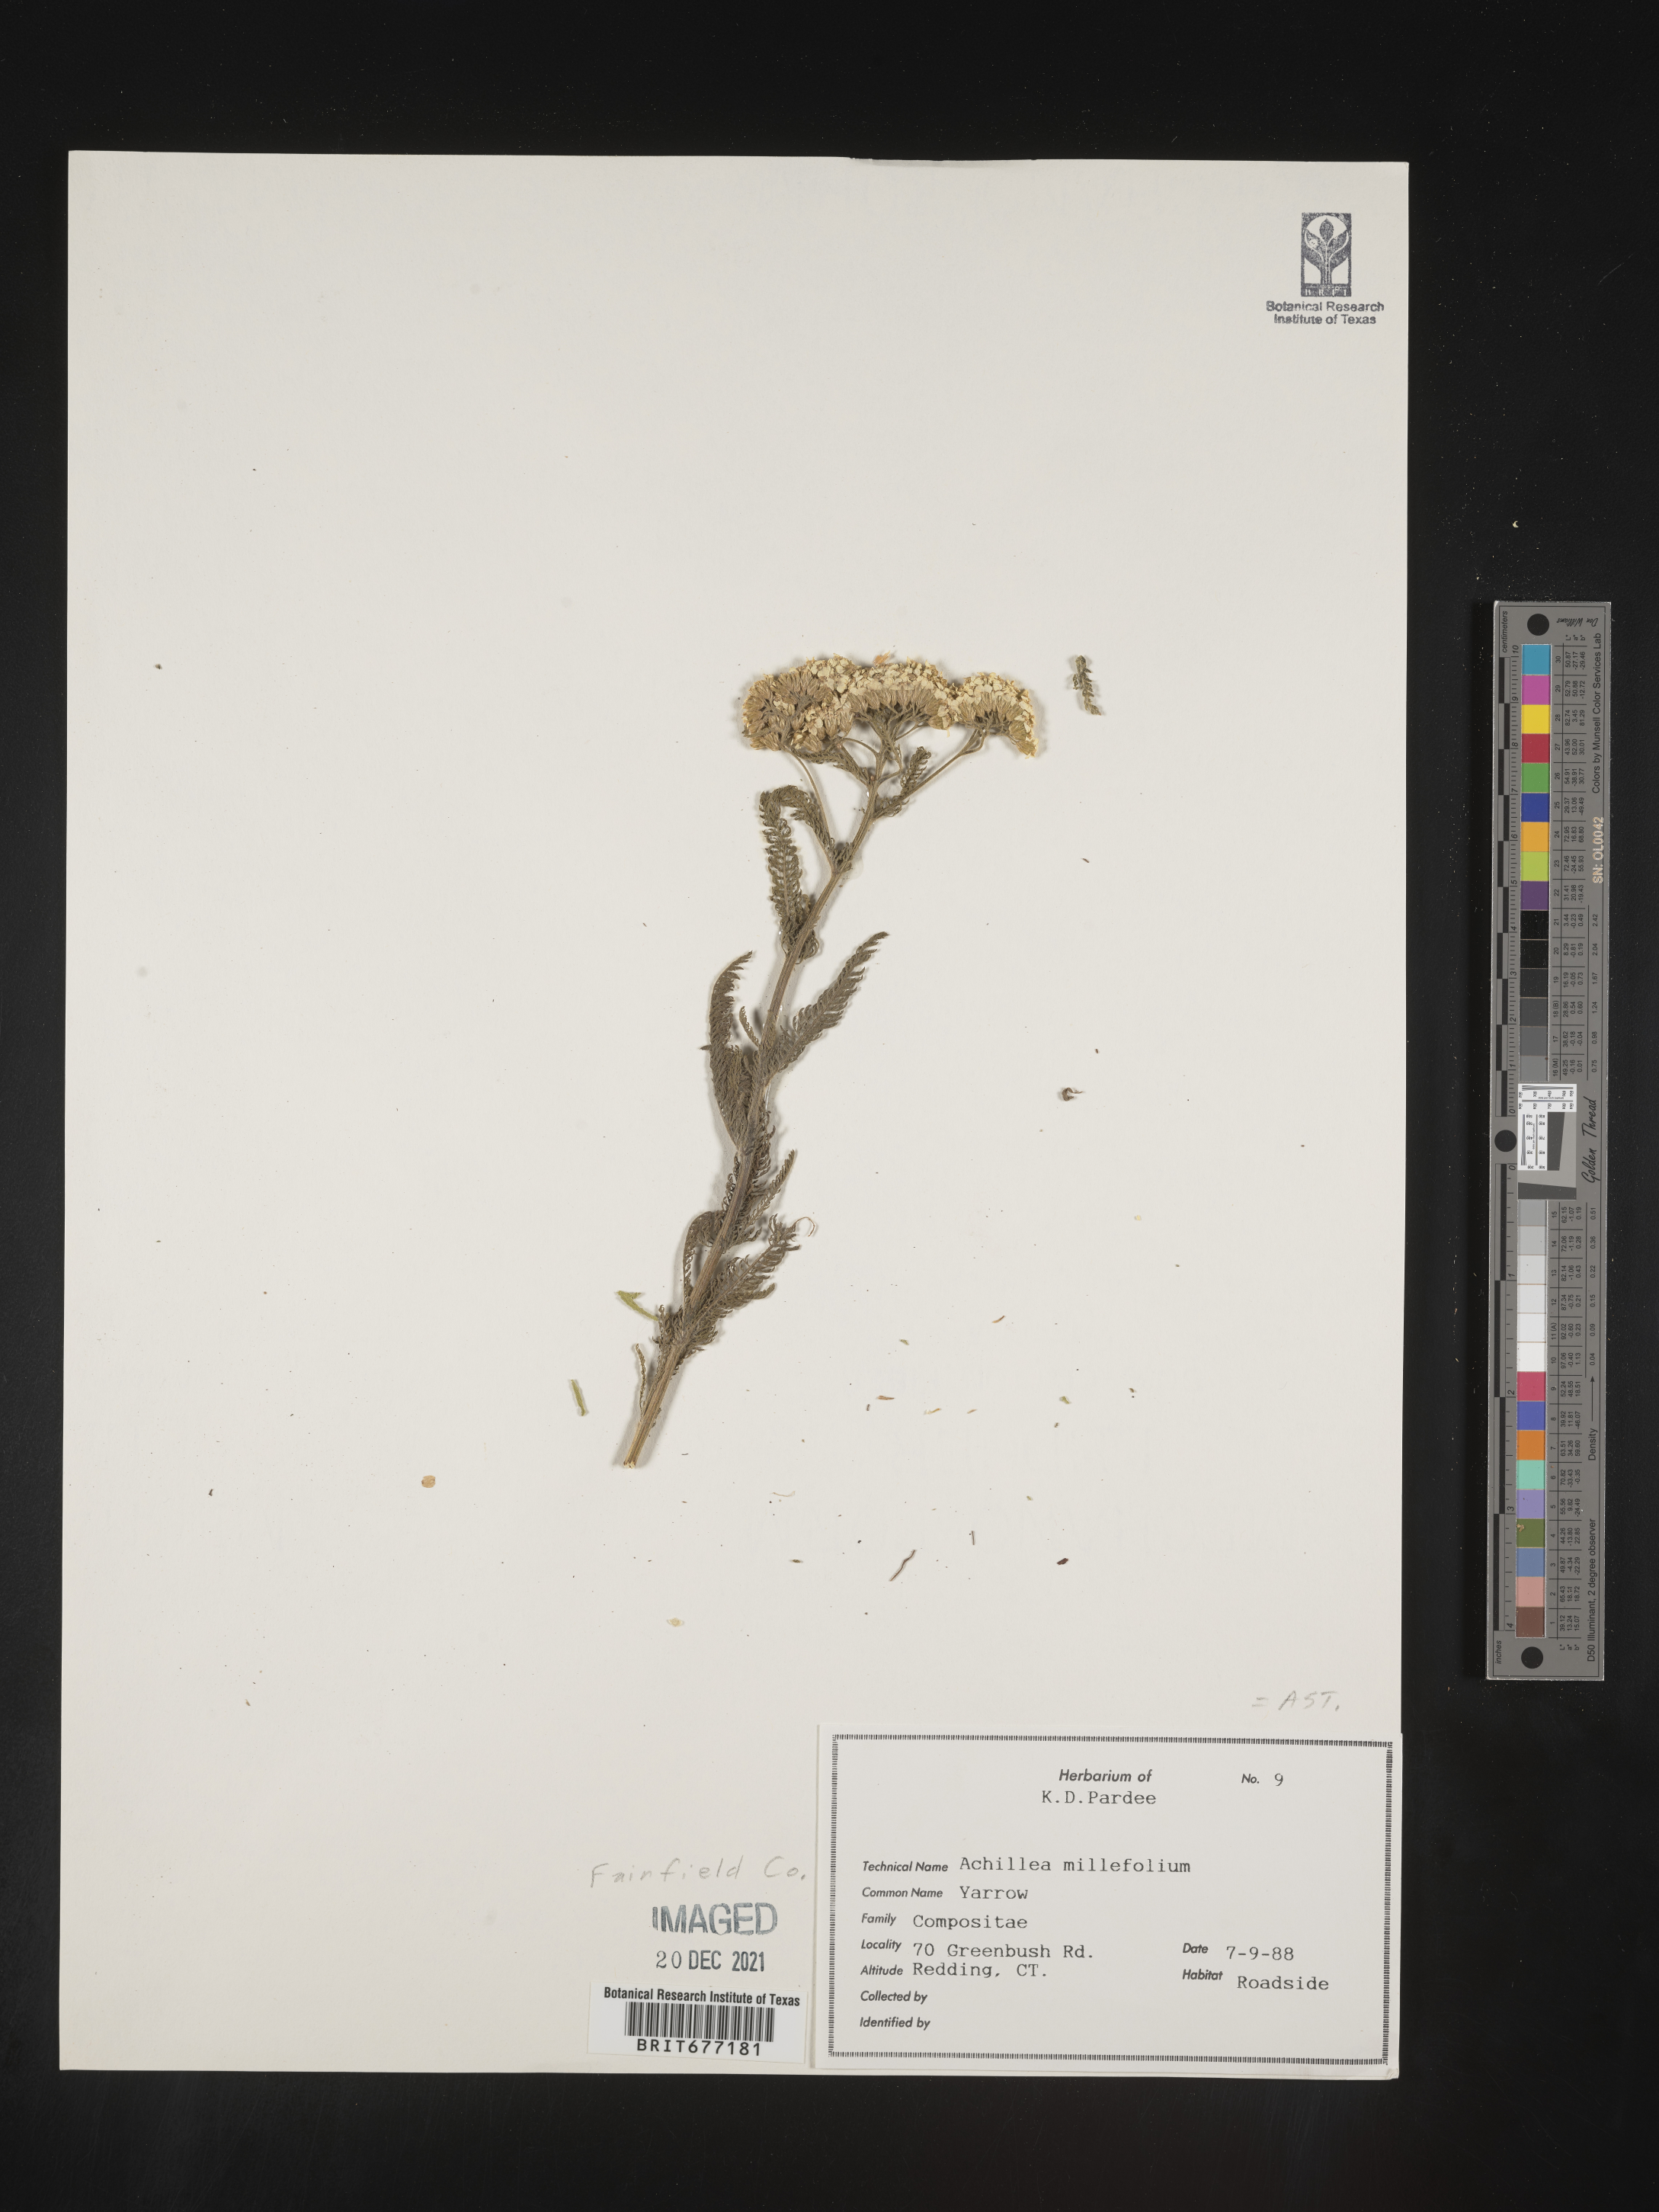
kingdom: Plantae
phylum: Tracheophyta
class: Magnoliopsida
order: Asterales
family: Asteraceae
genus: Achillea
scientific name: Achillea millefolium
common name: Yarrow
